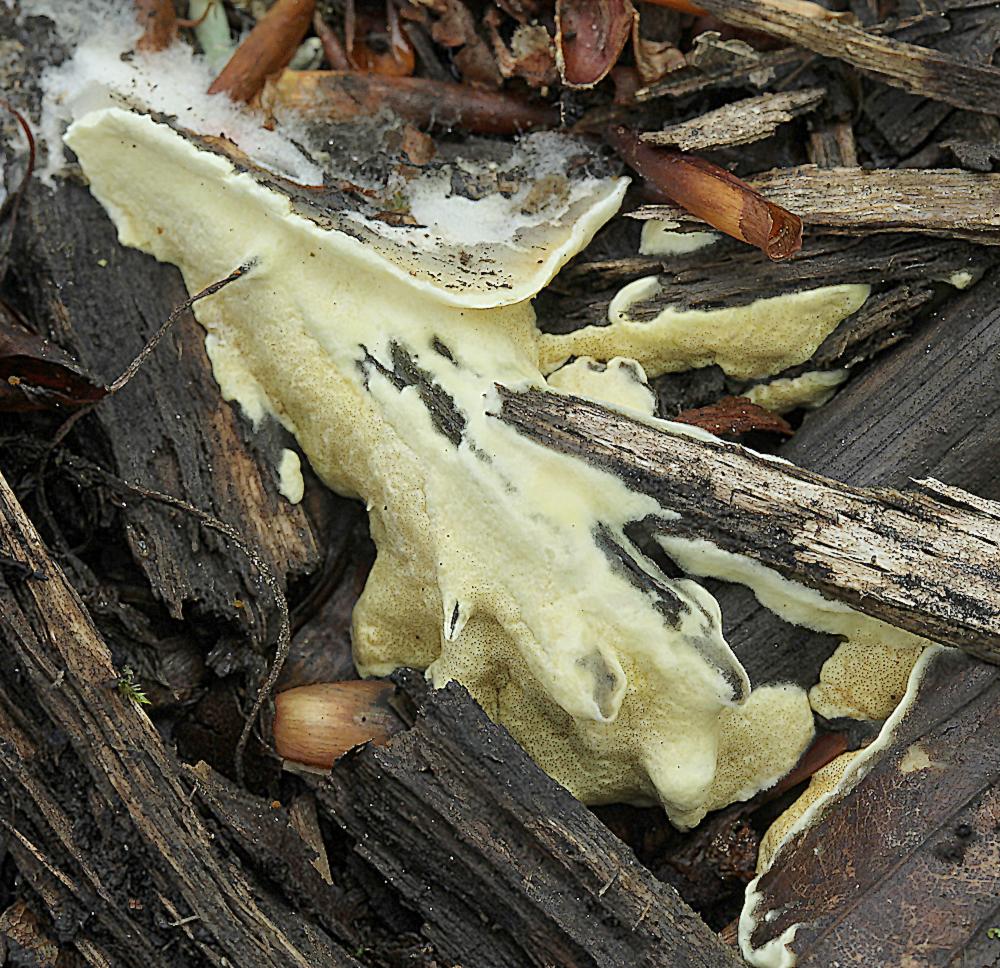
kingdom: Fungi
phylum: Ascomycota
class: Sordariomycetes
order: Hypocreales
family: Hypocreaceae
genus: Trichoderma
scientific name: Trichoderma citrinum
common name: udbredt kødkerne
